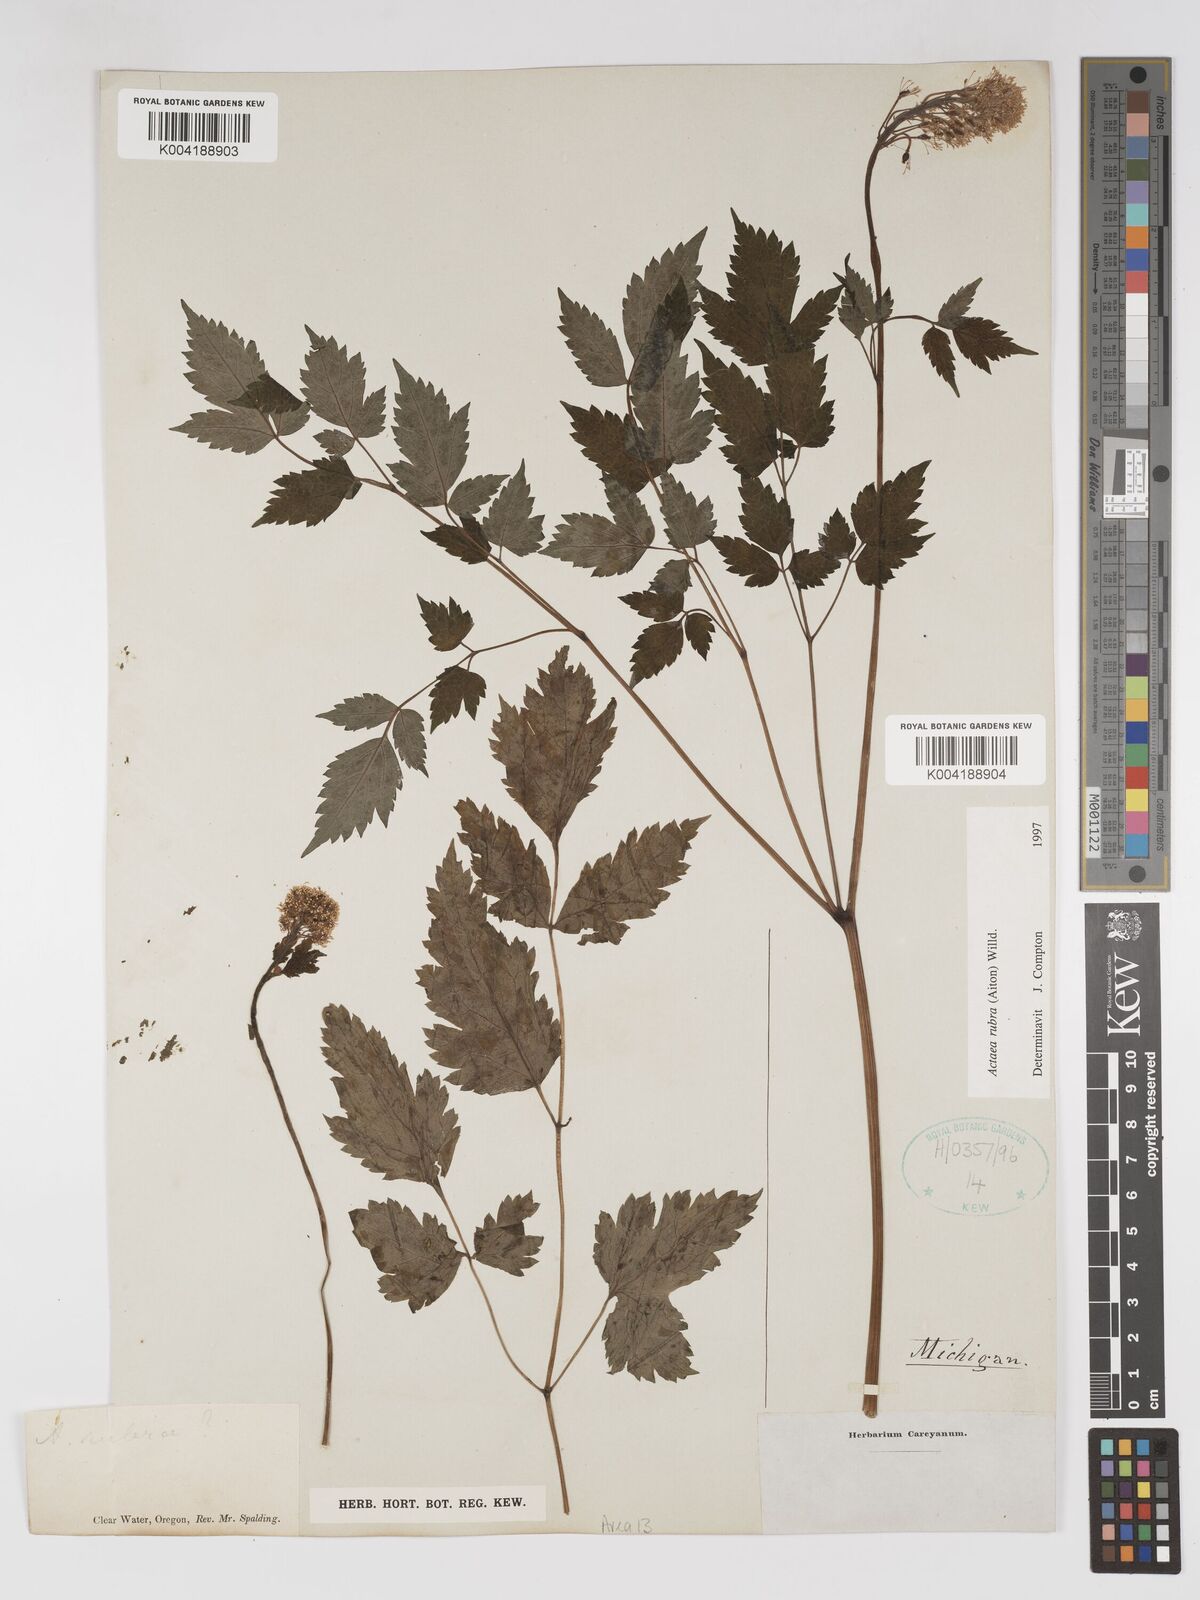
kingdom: Plantae
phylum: Tracheophyta
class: Magnoliopsida
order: Ranunculales
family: Ranunculaceae
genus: Actaea
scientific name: Actaea rubra
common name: Red baneberry
